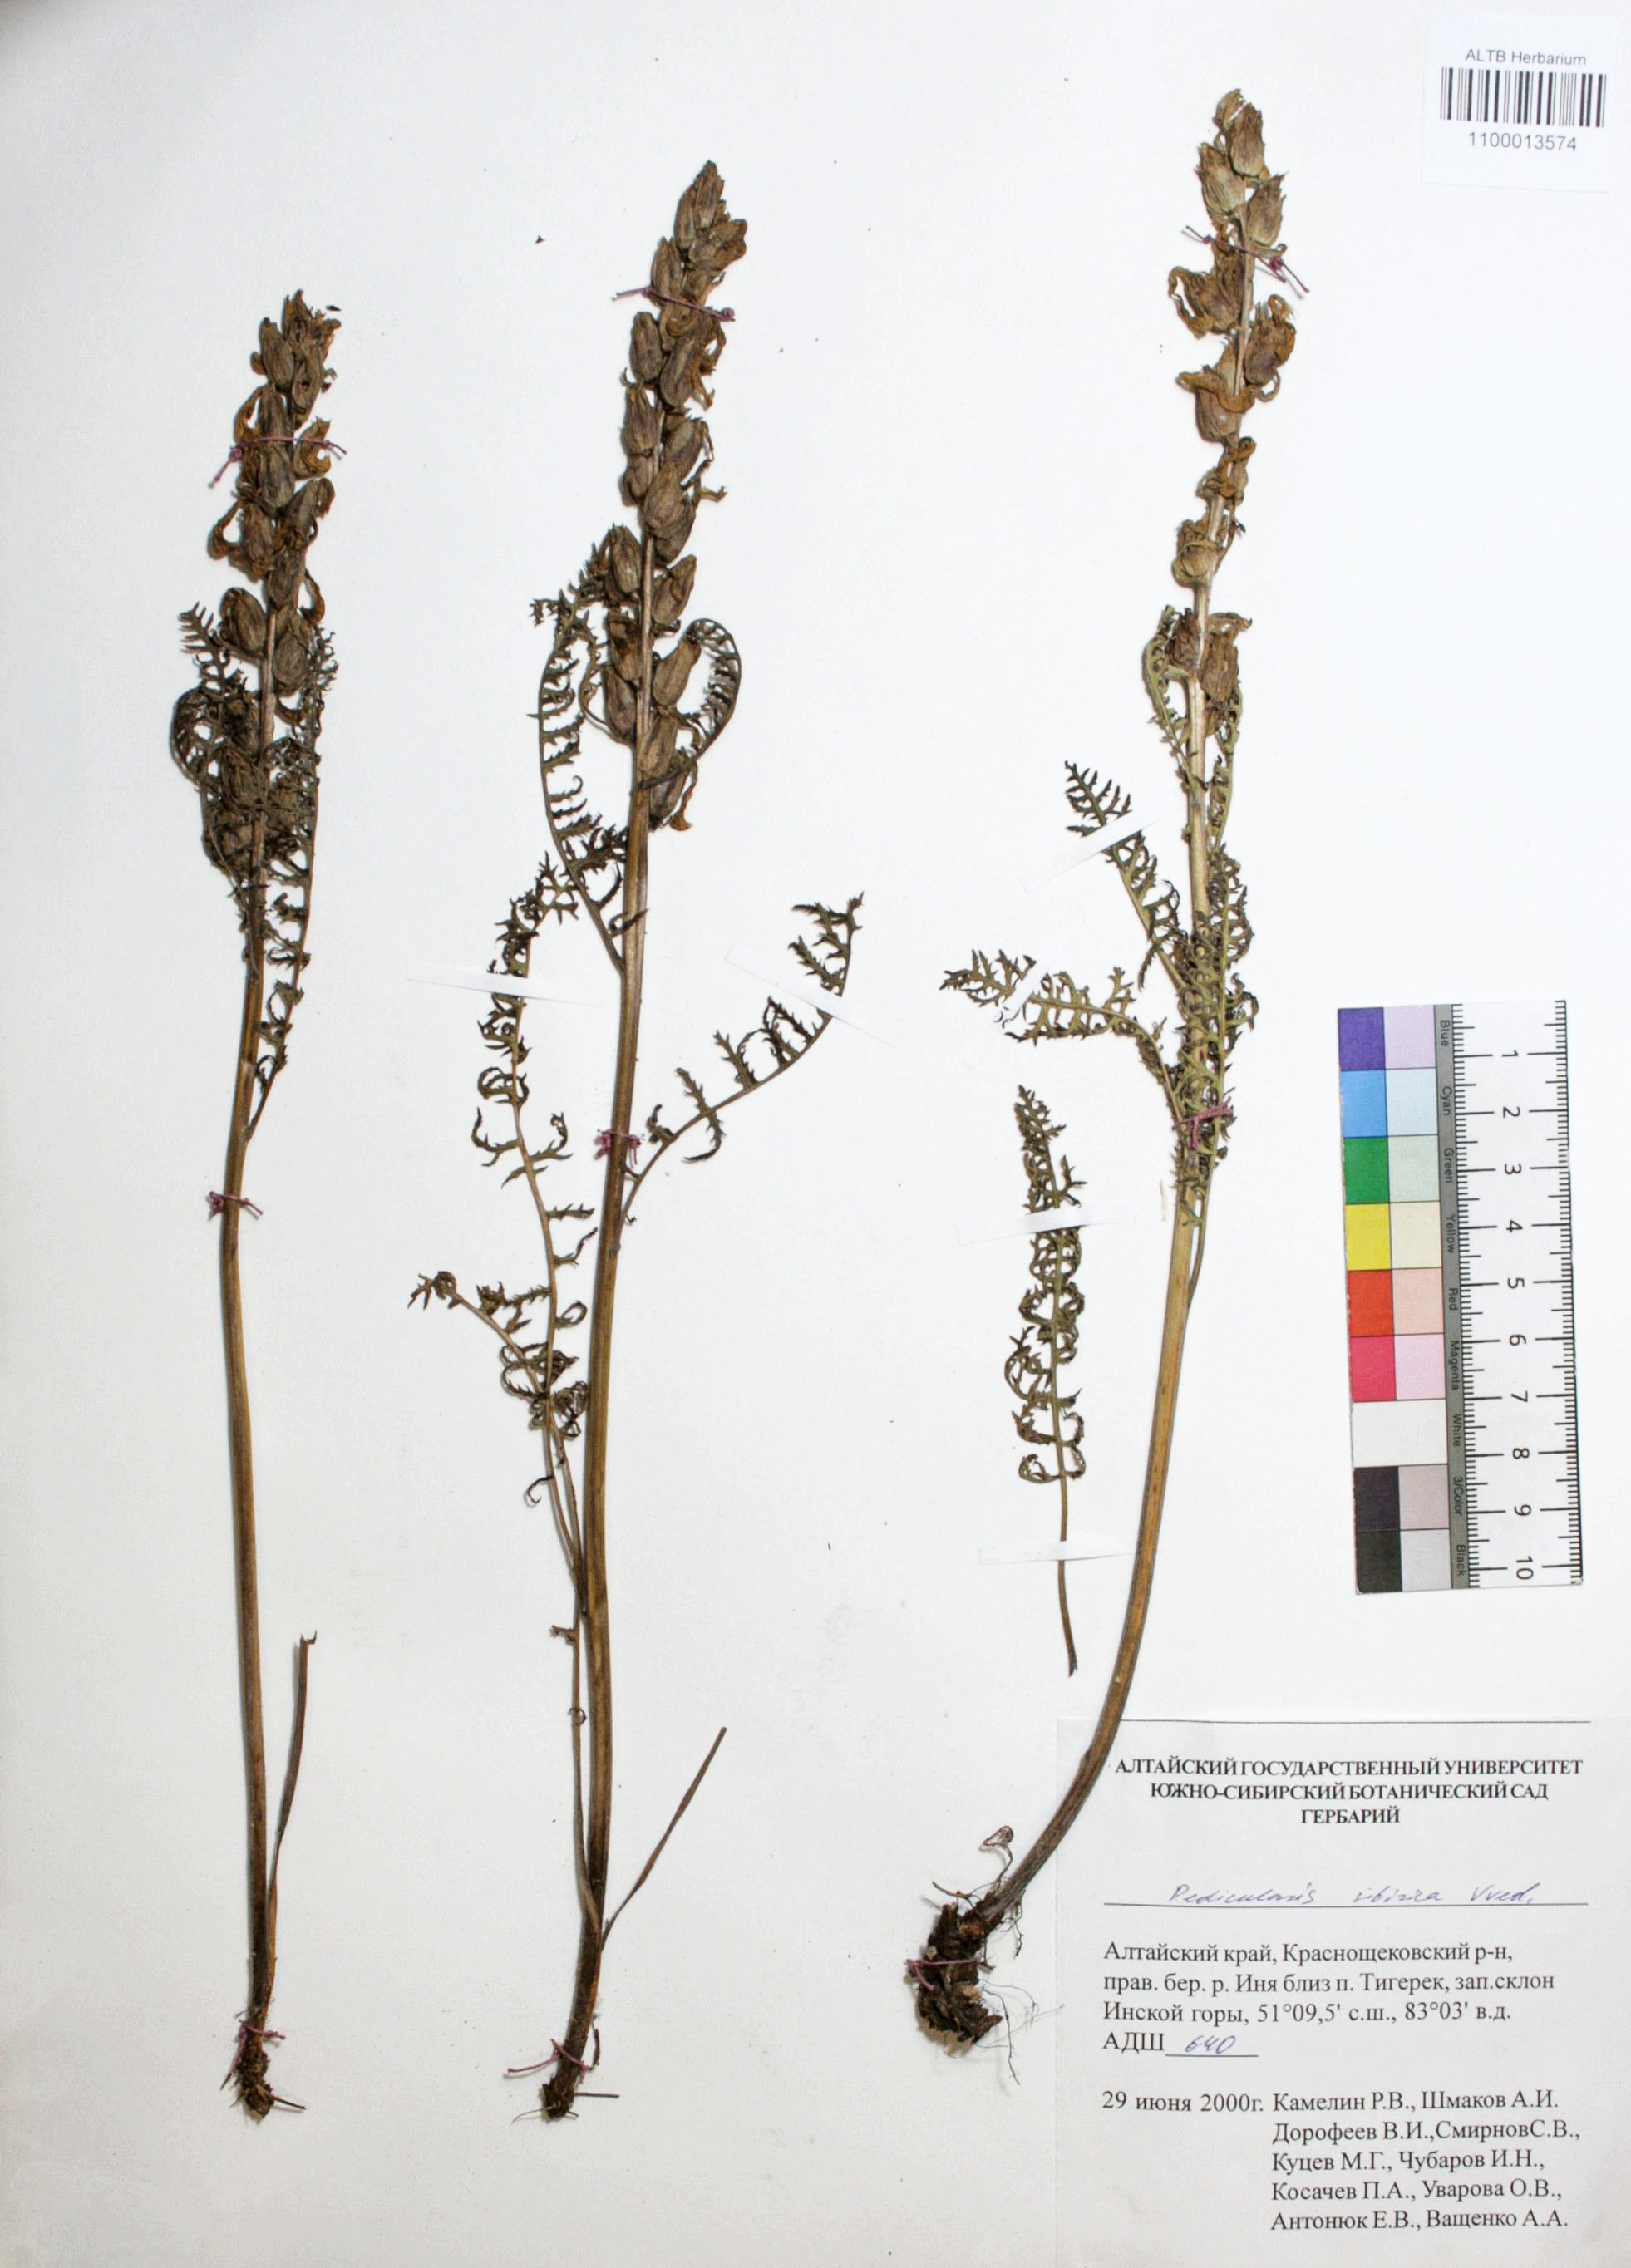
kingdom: Plantae
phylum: Tracheophyta
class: Magnoliopsida
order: Lamiales
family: Orobanchaceae
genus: Pedicularis
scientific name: Pedicularis sibirica
